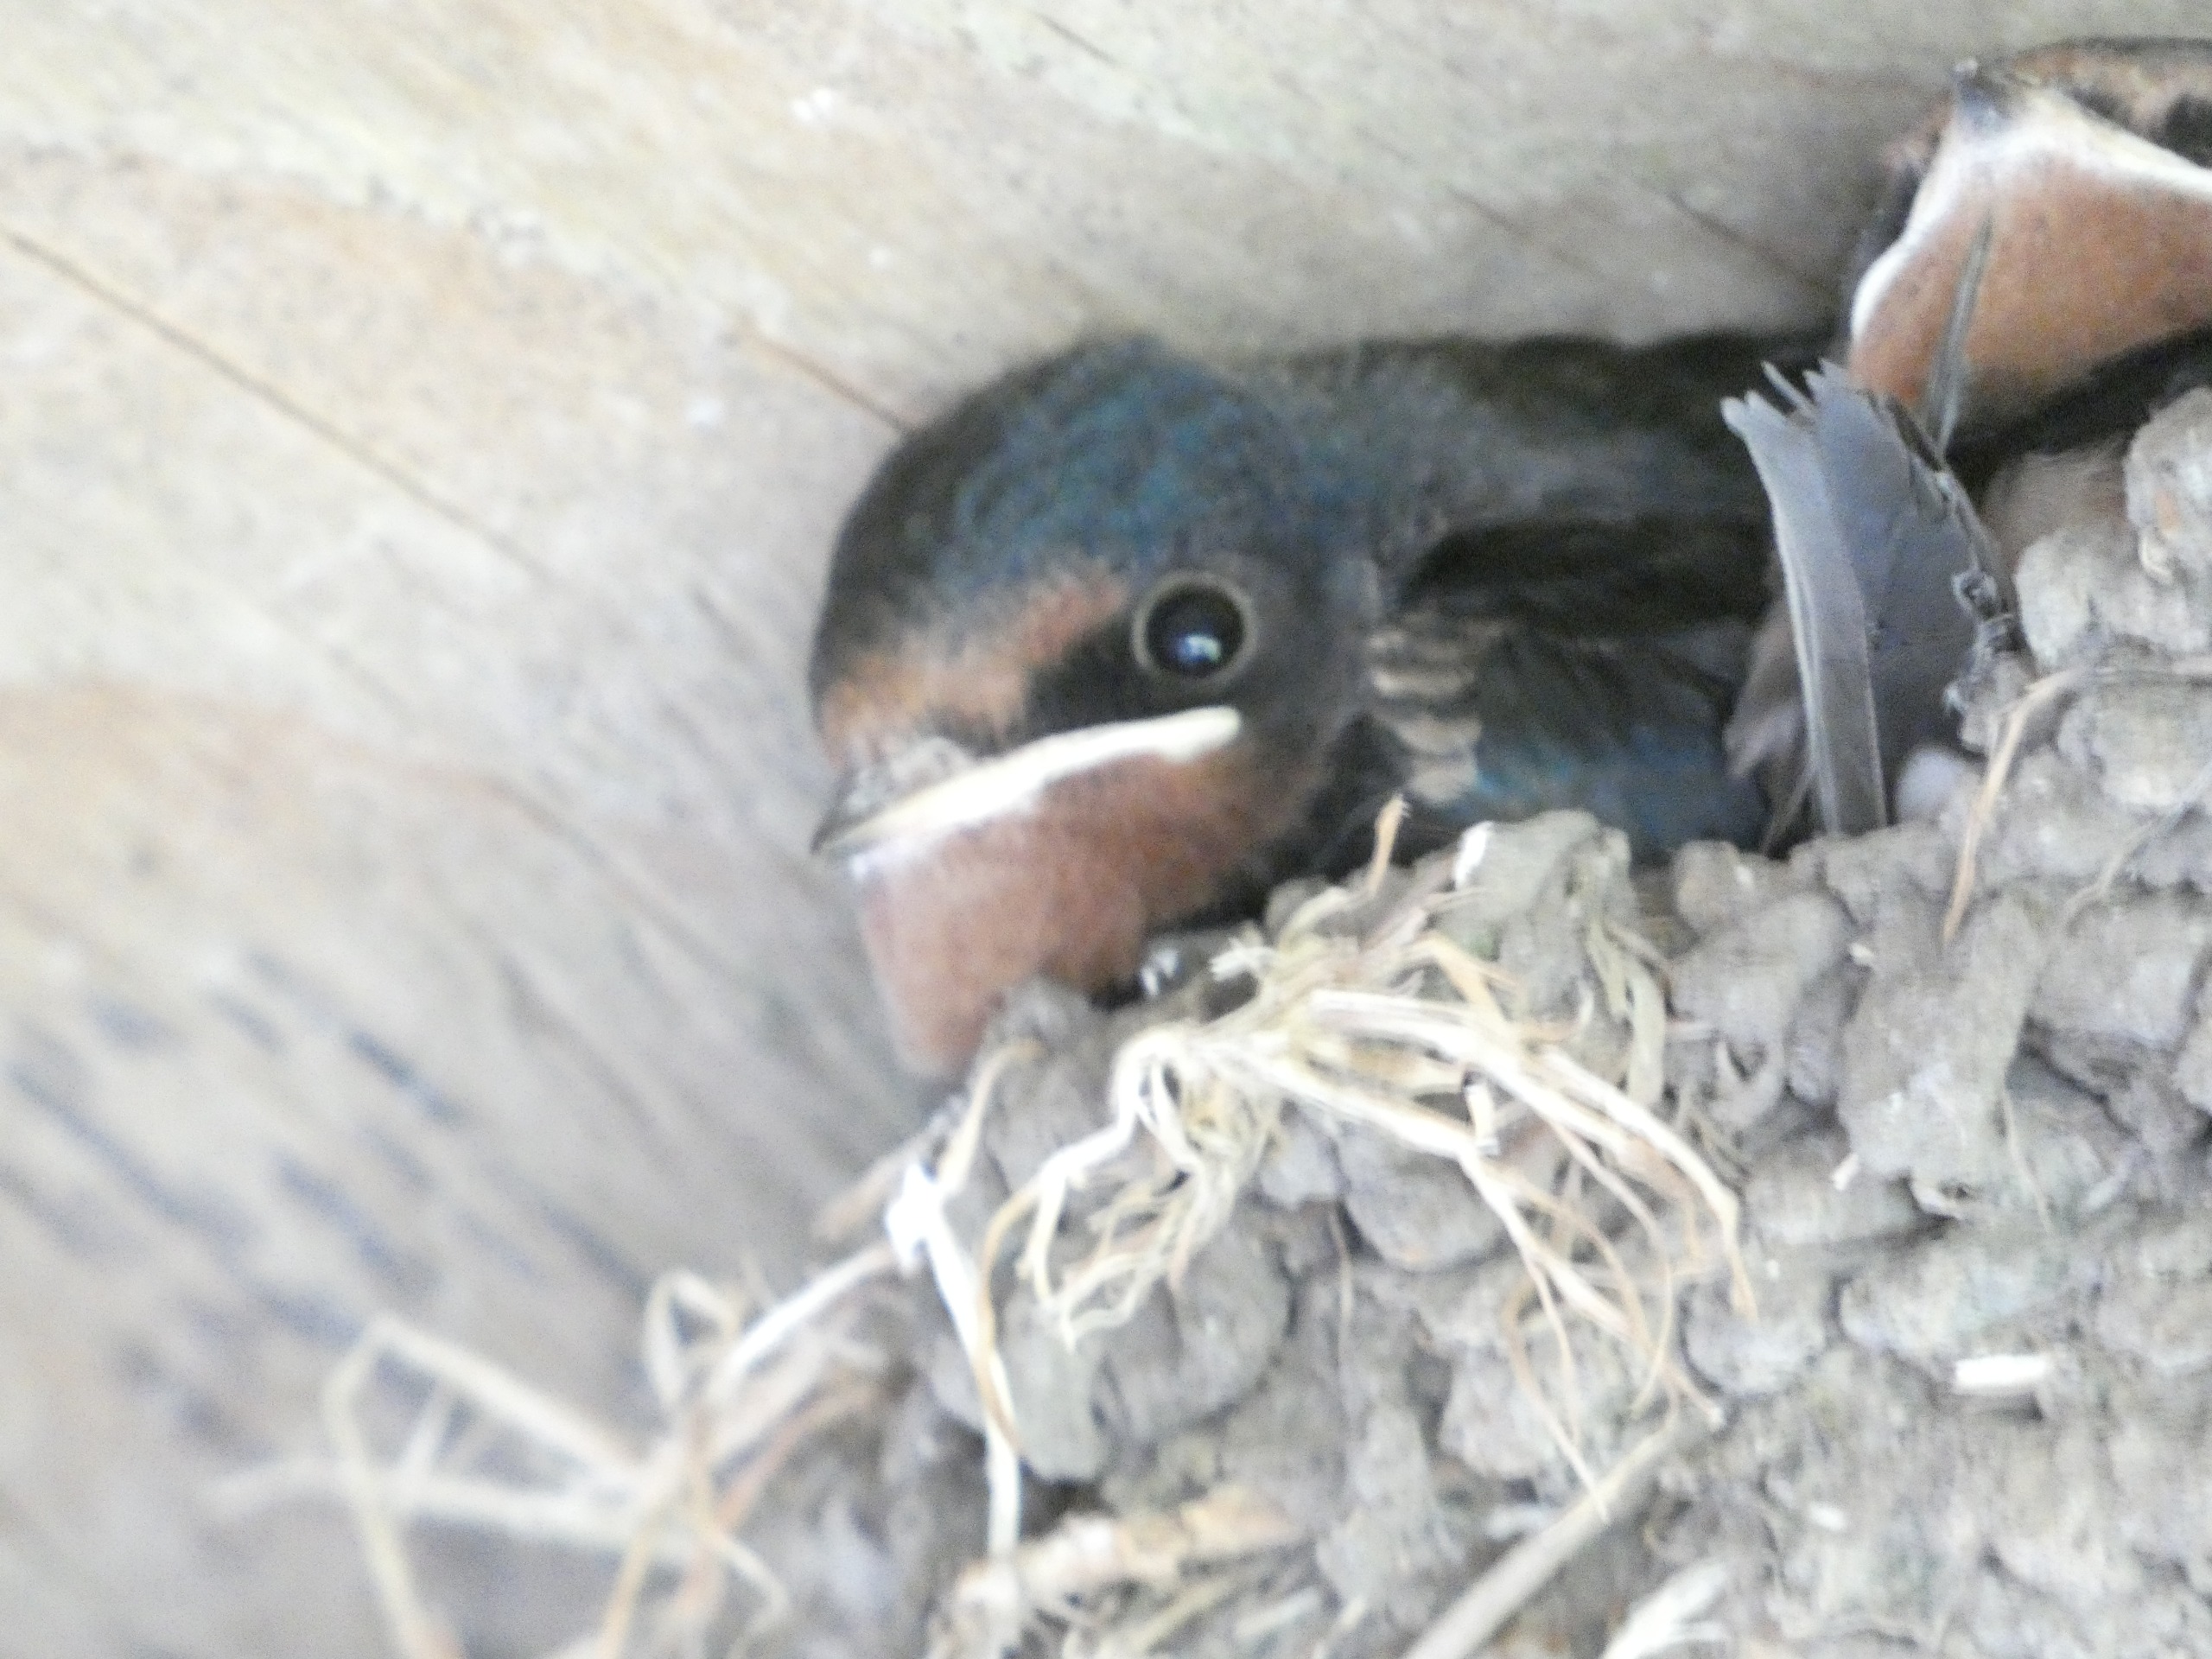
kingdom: Animalia
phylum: Chordata
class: Aves
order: Passeriformes
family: Hirundinidae
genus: Hirundo
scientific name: Hirundo rustica
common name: Landsvale
